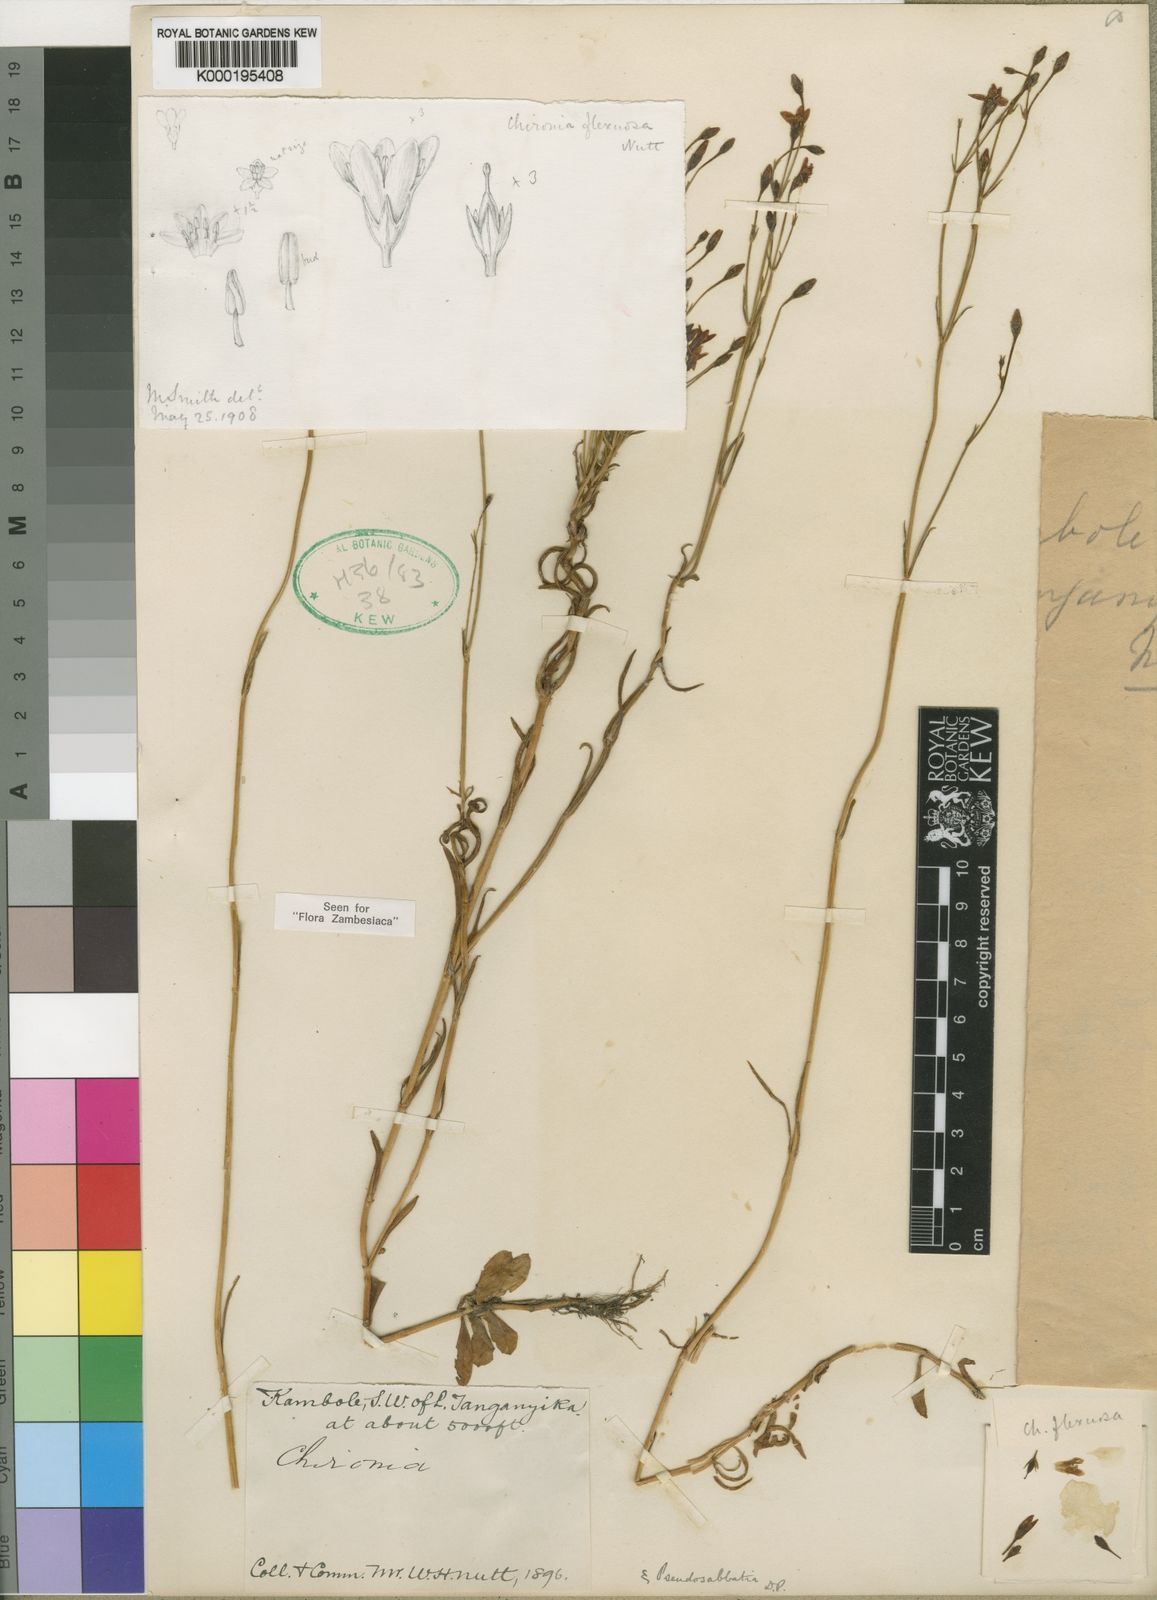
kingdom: Plantae
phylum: Tracheophyta
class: Magnoliopsida
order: Gentianales
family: Gentianaceae
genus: Chironia
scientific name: Chironia flexuosa
